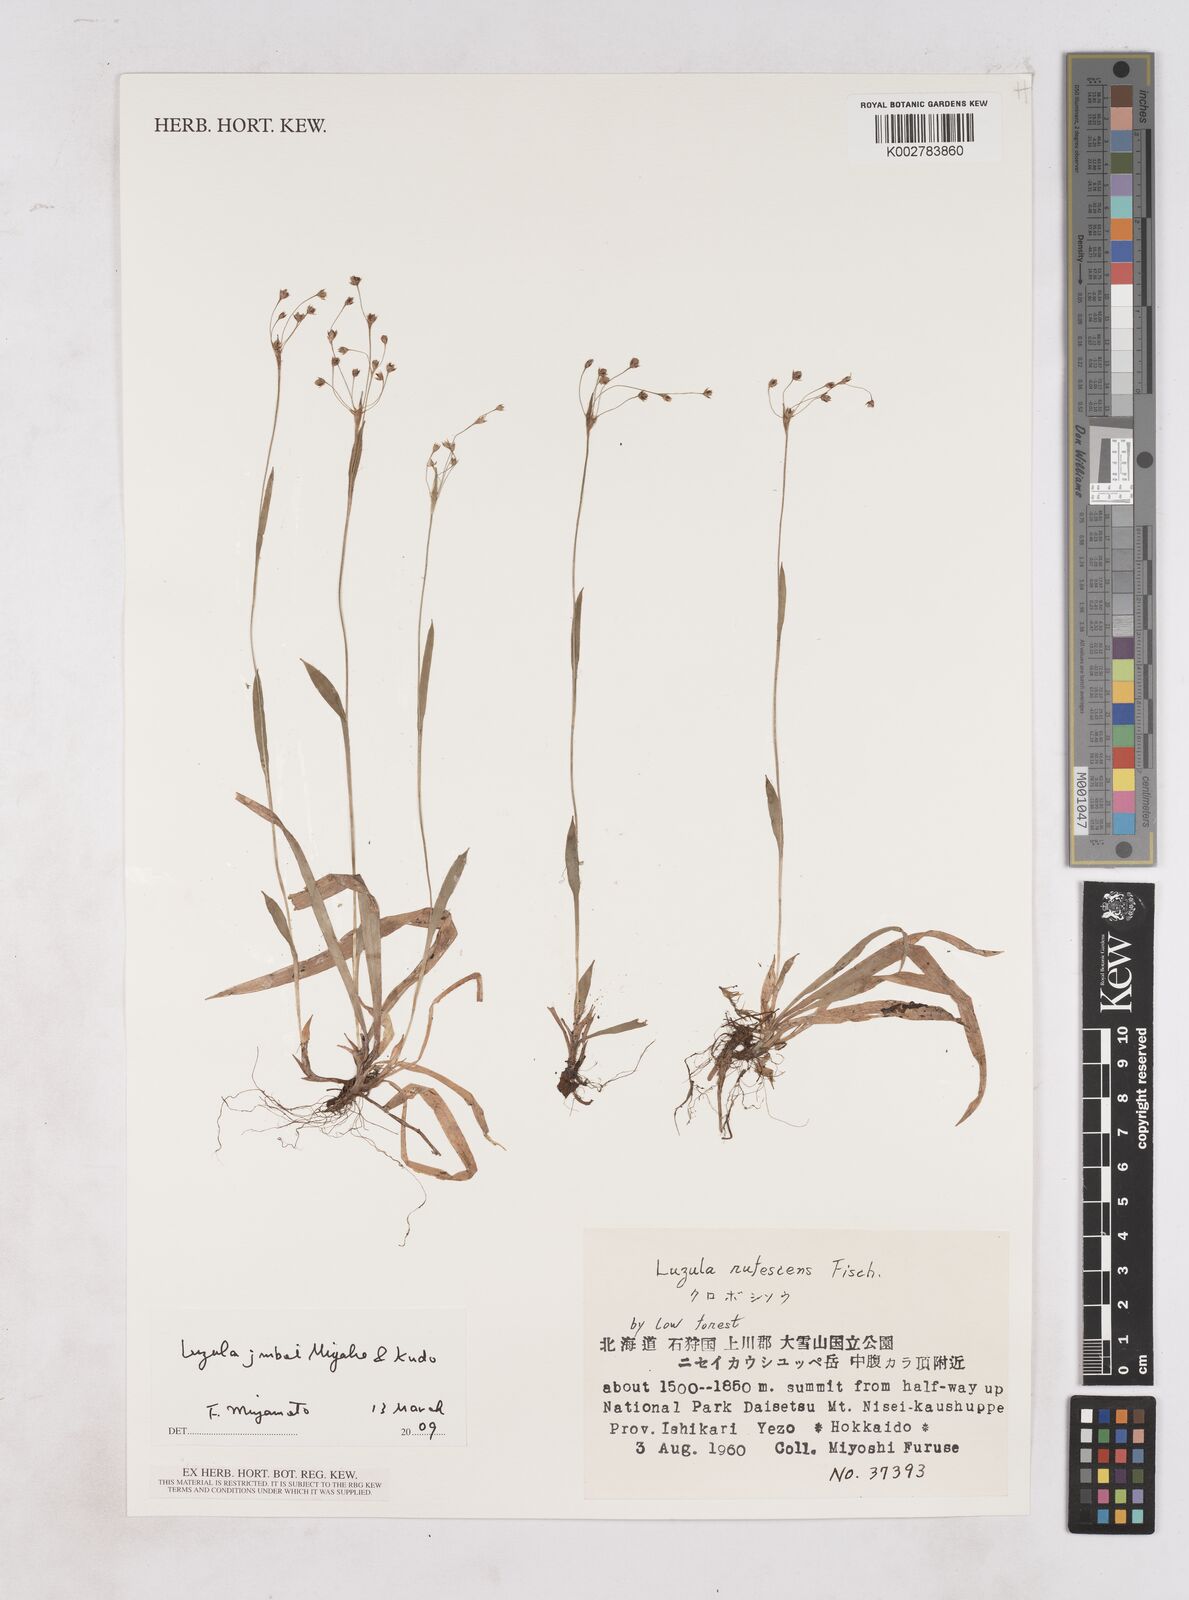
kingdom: Plantae
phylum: Tracheophyta
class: Liliopsida
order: Poales
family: Juncaceae
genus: Luzula
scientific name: Luzula plumosa
